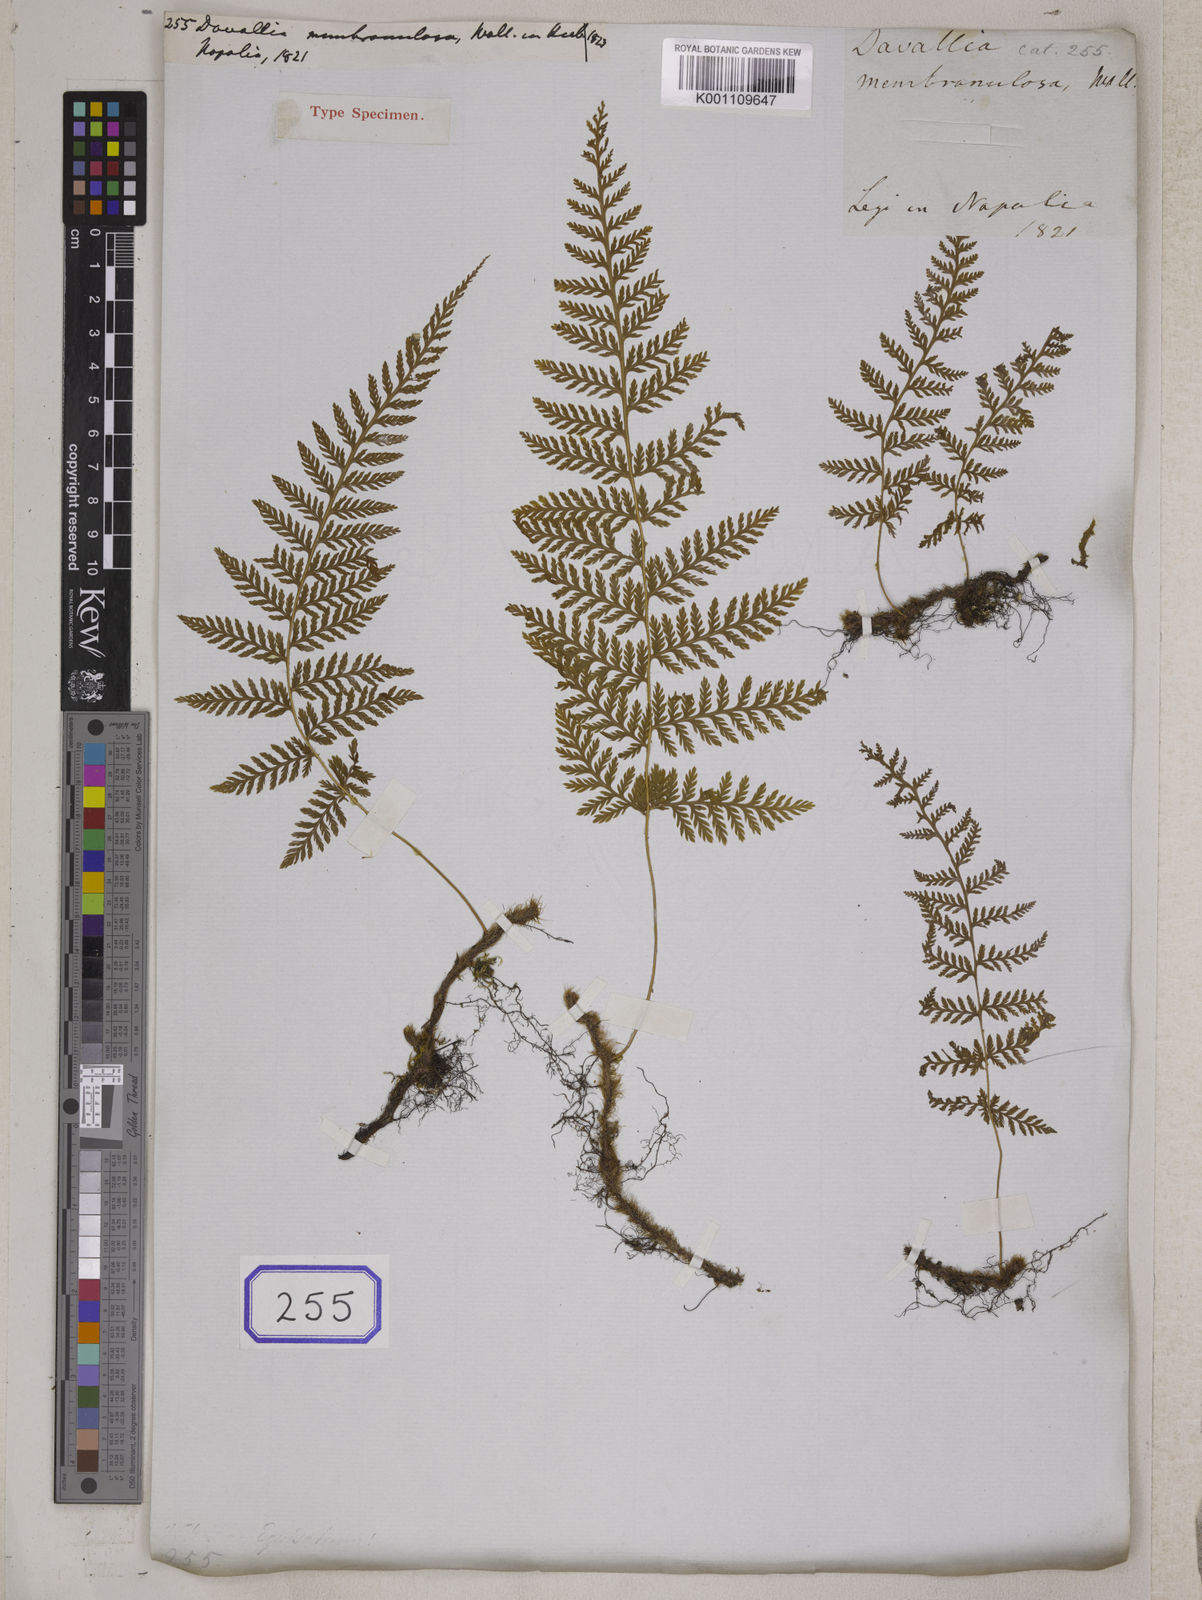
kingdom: Plantae
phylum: Tracheophyta
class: Polypodiopsida
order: Polypodiales
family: Davalliaceae
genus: Davallodes
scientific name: Davallodes membranulosum
